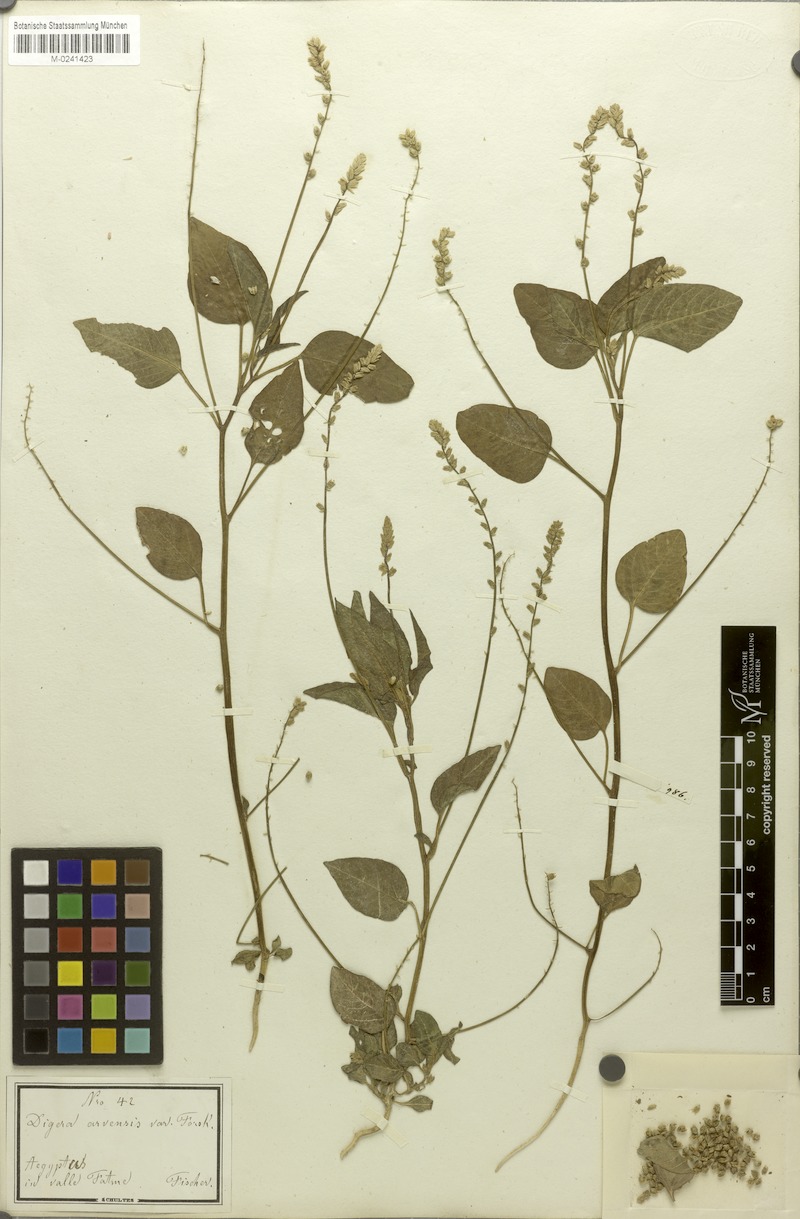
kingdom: Plantae
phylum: Tracheophyta
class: Magnoliopsida
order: Caryophyllales
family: Amaranthaceae
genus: Digera
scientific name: Digera muricata
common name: False amaranth
